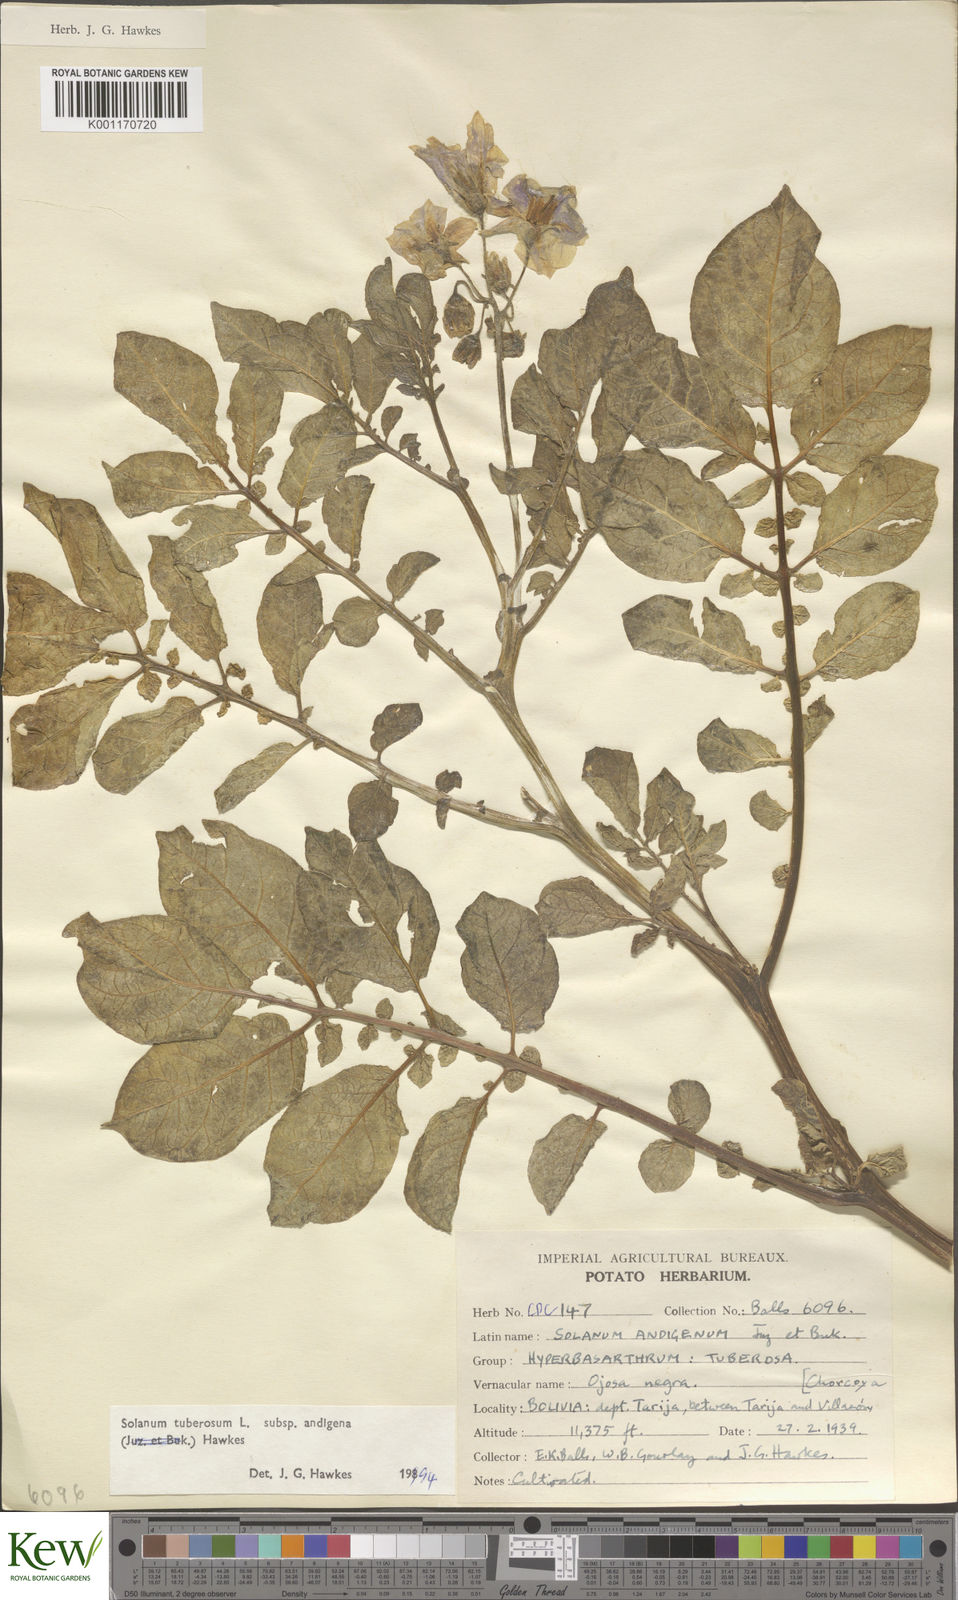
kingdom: Plantae
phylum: Tracheophyta
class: Magnoliopsida
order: Solanales
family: Solanaceae
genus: Solanum
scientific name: Solanum tuberosum
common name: Potato
